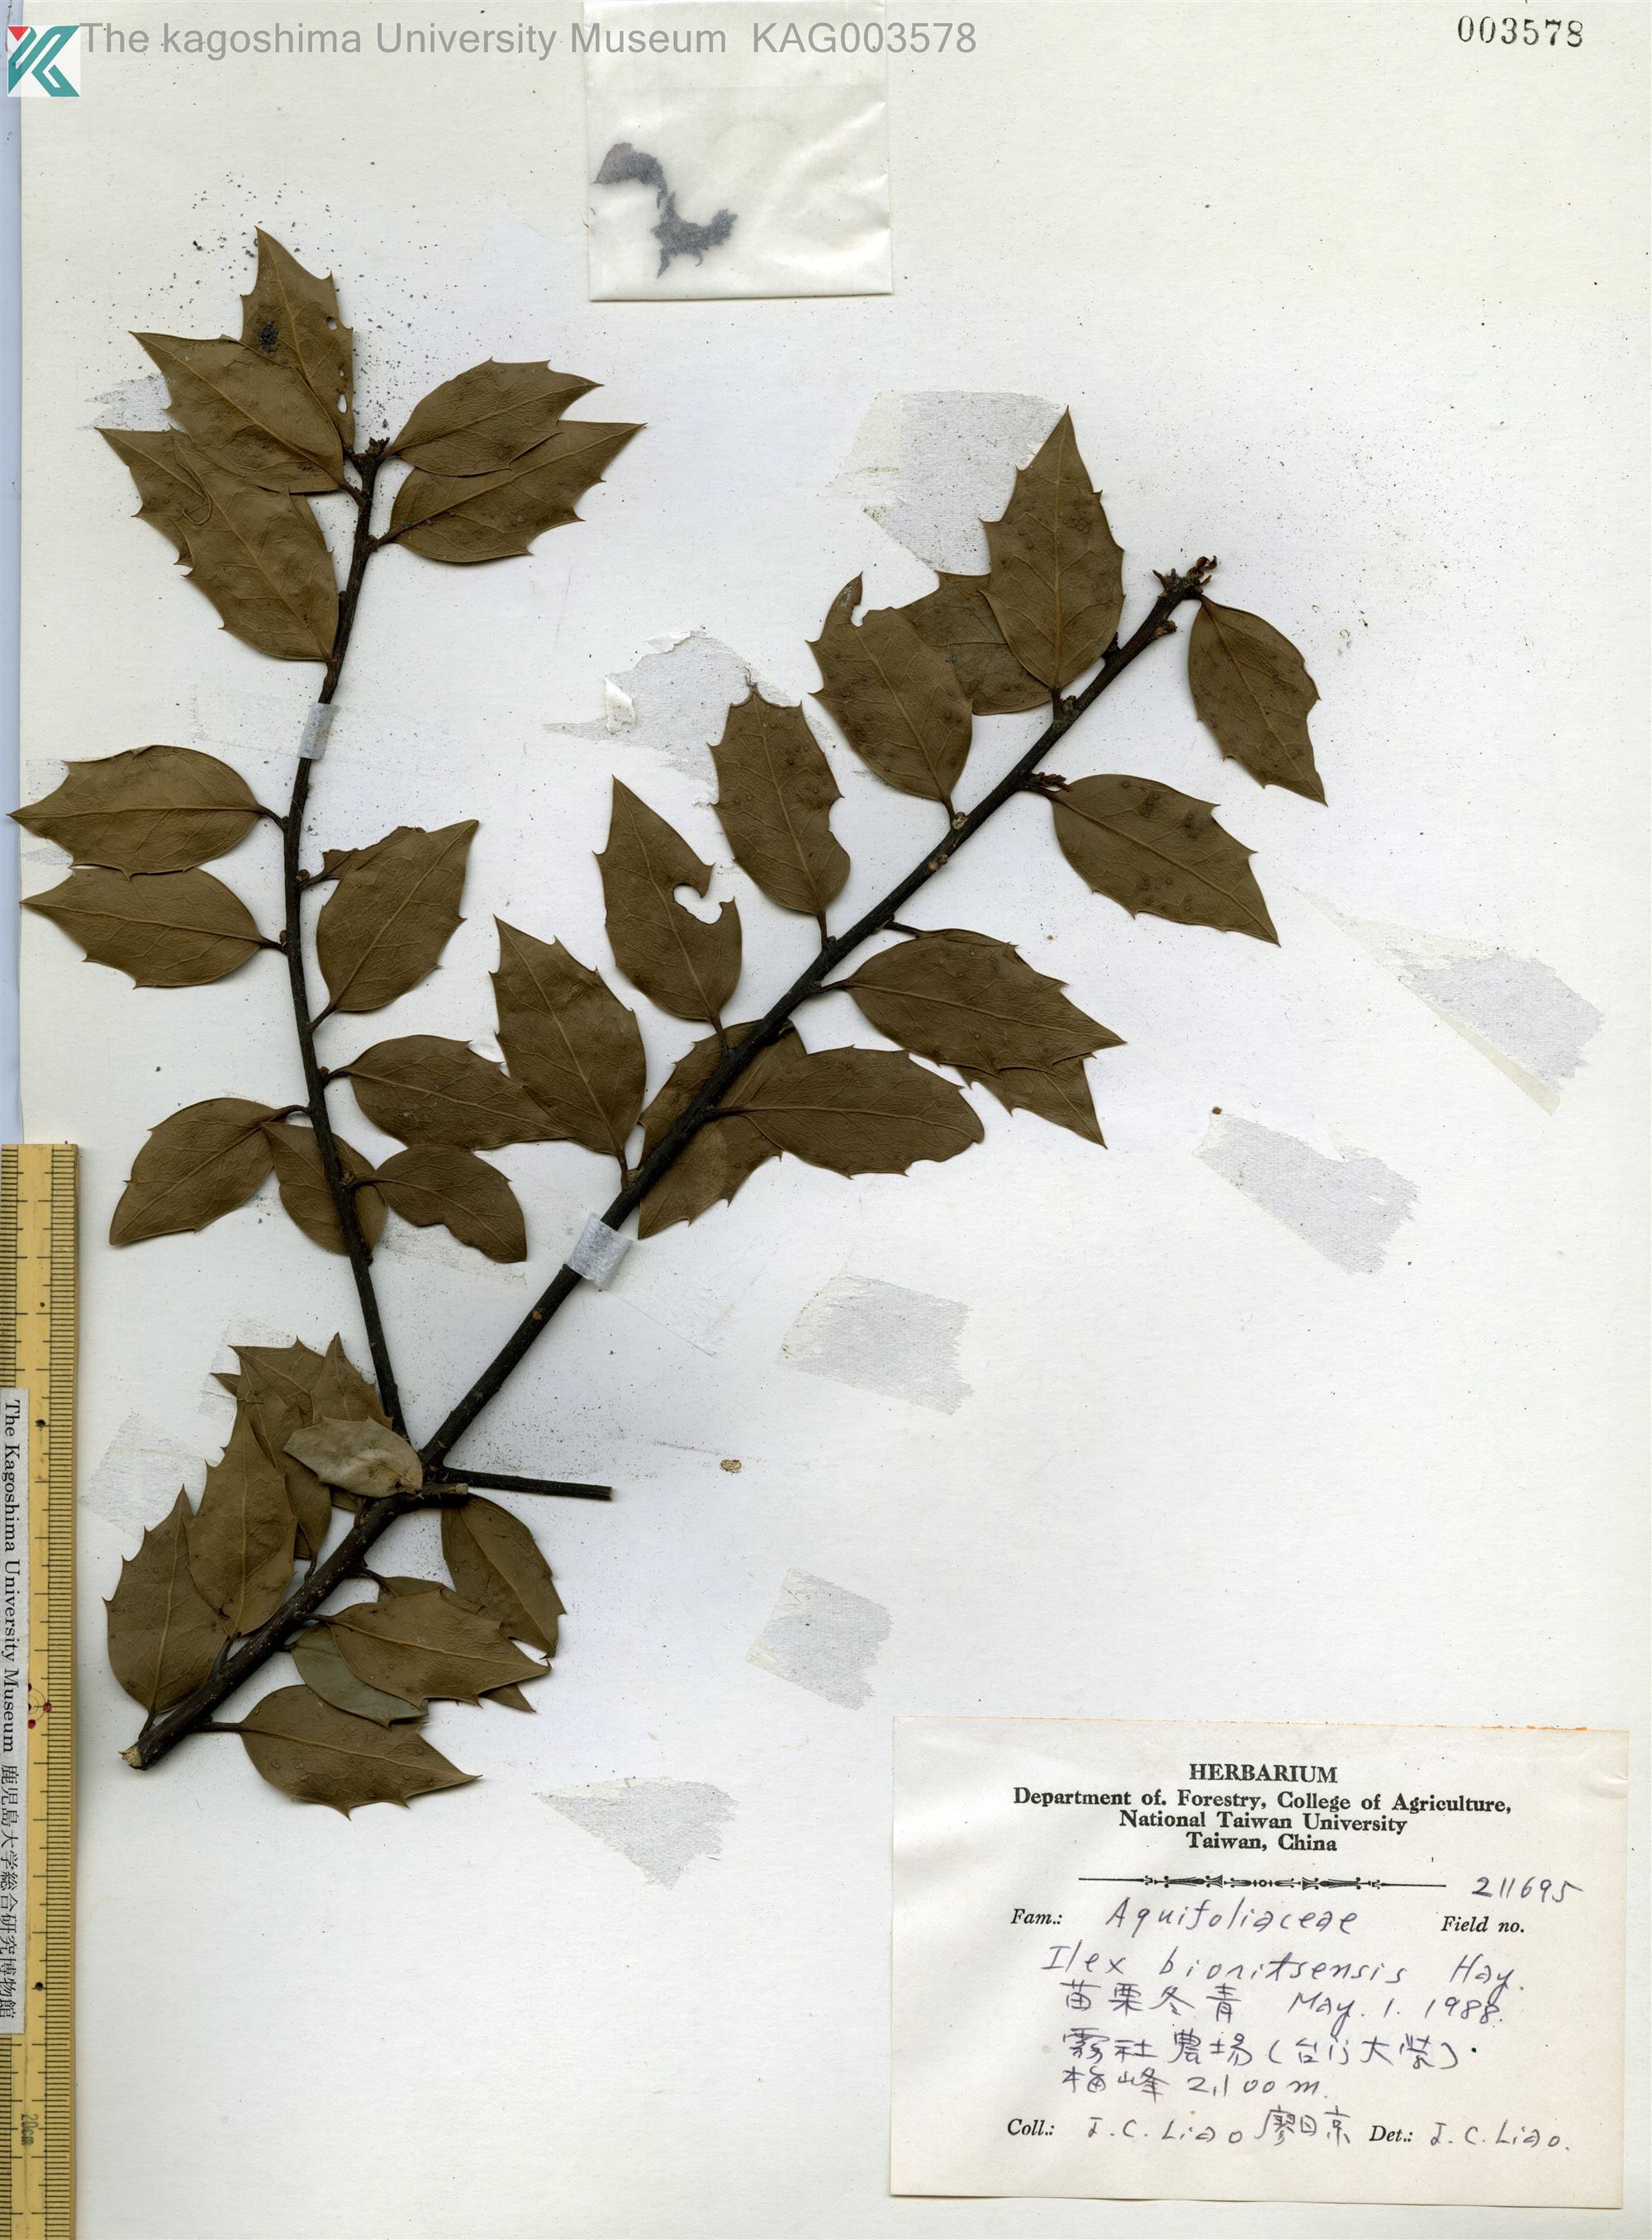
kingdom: Plantae
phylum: Tracheophyta
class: Magnoliopsida
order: Aquifoliales
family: Aquifoliaceae
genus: Ilex
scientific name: Ilex bioritensis
